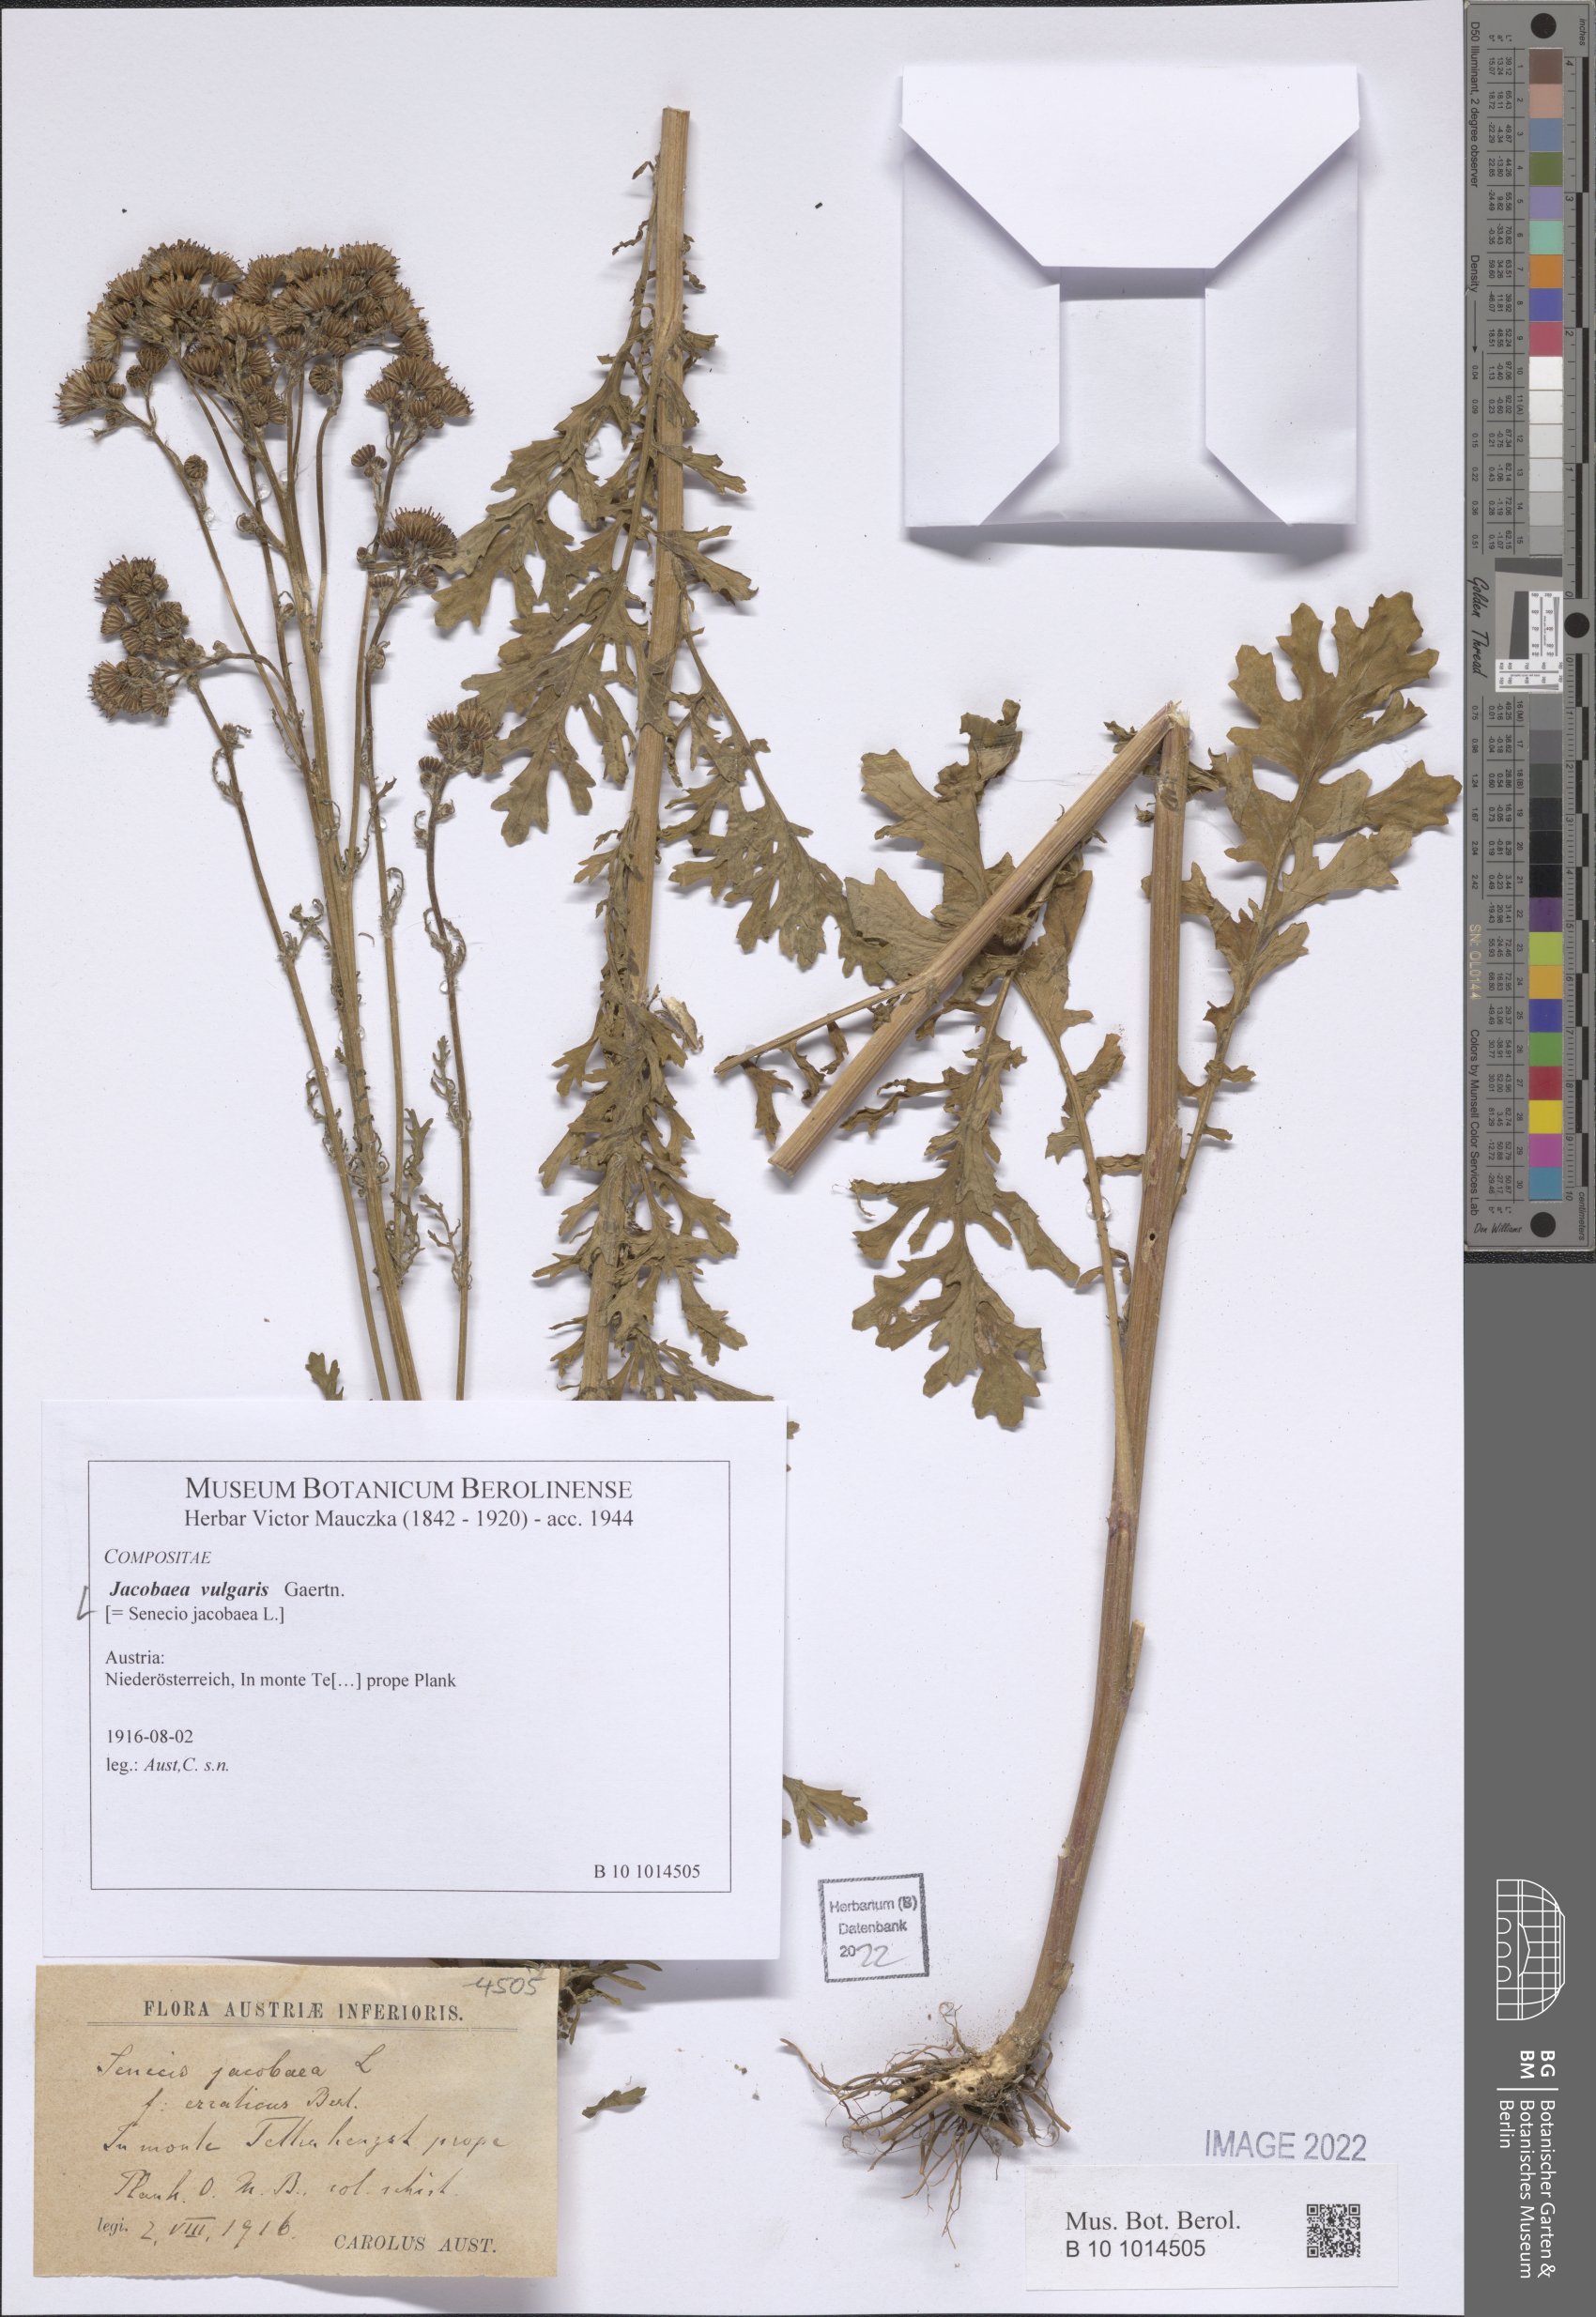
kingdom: Plantae
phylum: Tracheophyta
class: Magnoliopsida
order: Asterales
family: Asteraceae
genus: Jacobaea
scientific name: Jacobaea vulgaris
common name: Stinking willie
